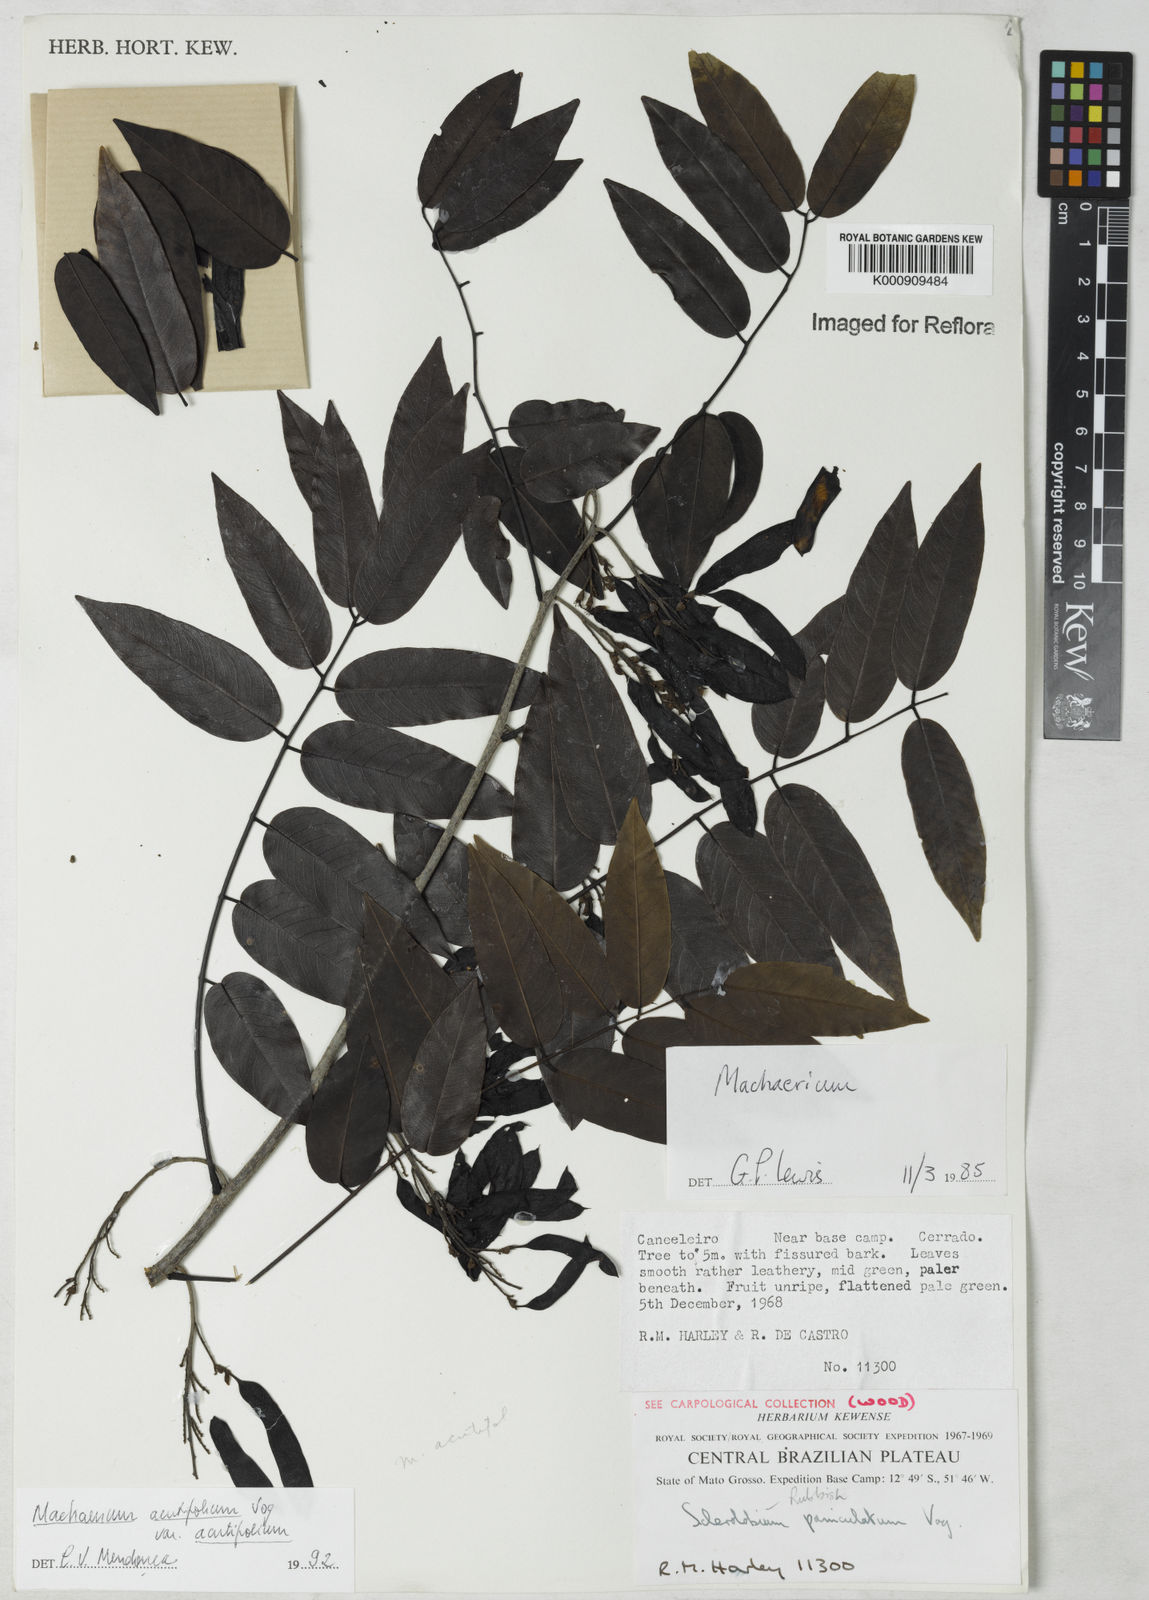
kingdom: Plantae
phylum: Tracheophyta
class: Magnoliopsida
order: Fabales
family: Fabaceae
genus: Machaerium
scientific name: Machaerium acutifolium
